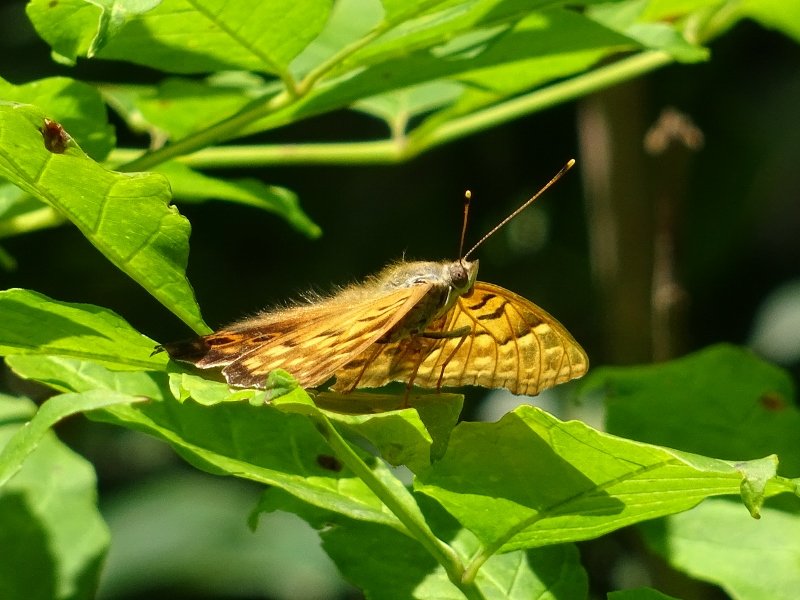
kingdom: Animalia
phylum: Arthropoda
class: Insecta
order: Lepidoptera
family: Nymphalidae
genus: Asterocampa
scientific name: Asterocampa clyton
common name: Tawny Emperor
